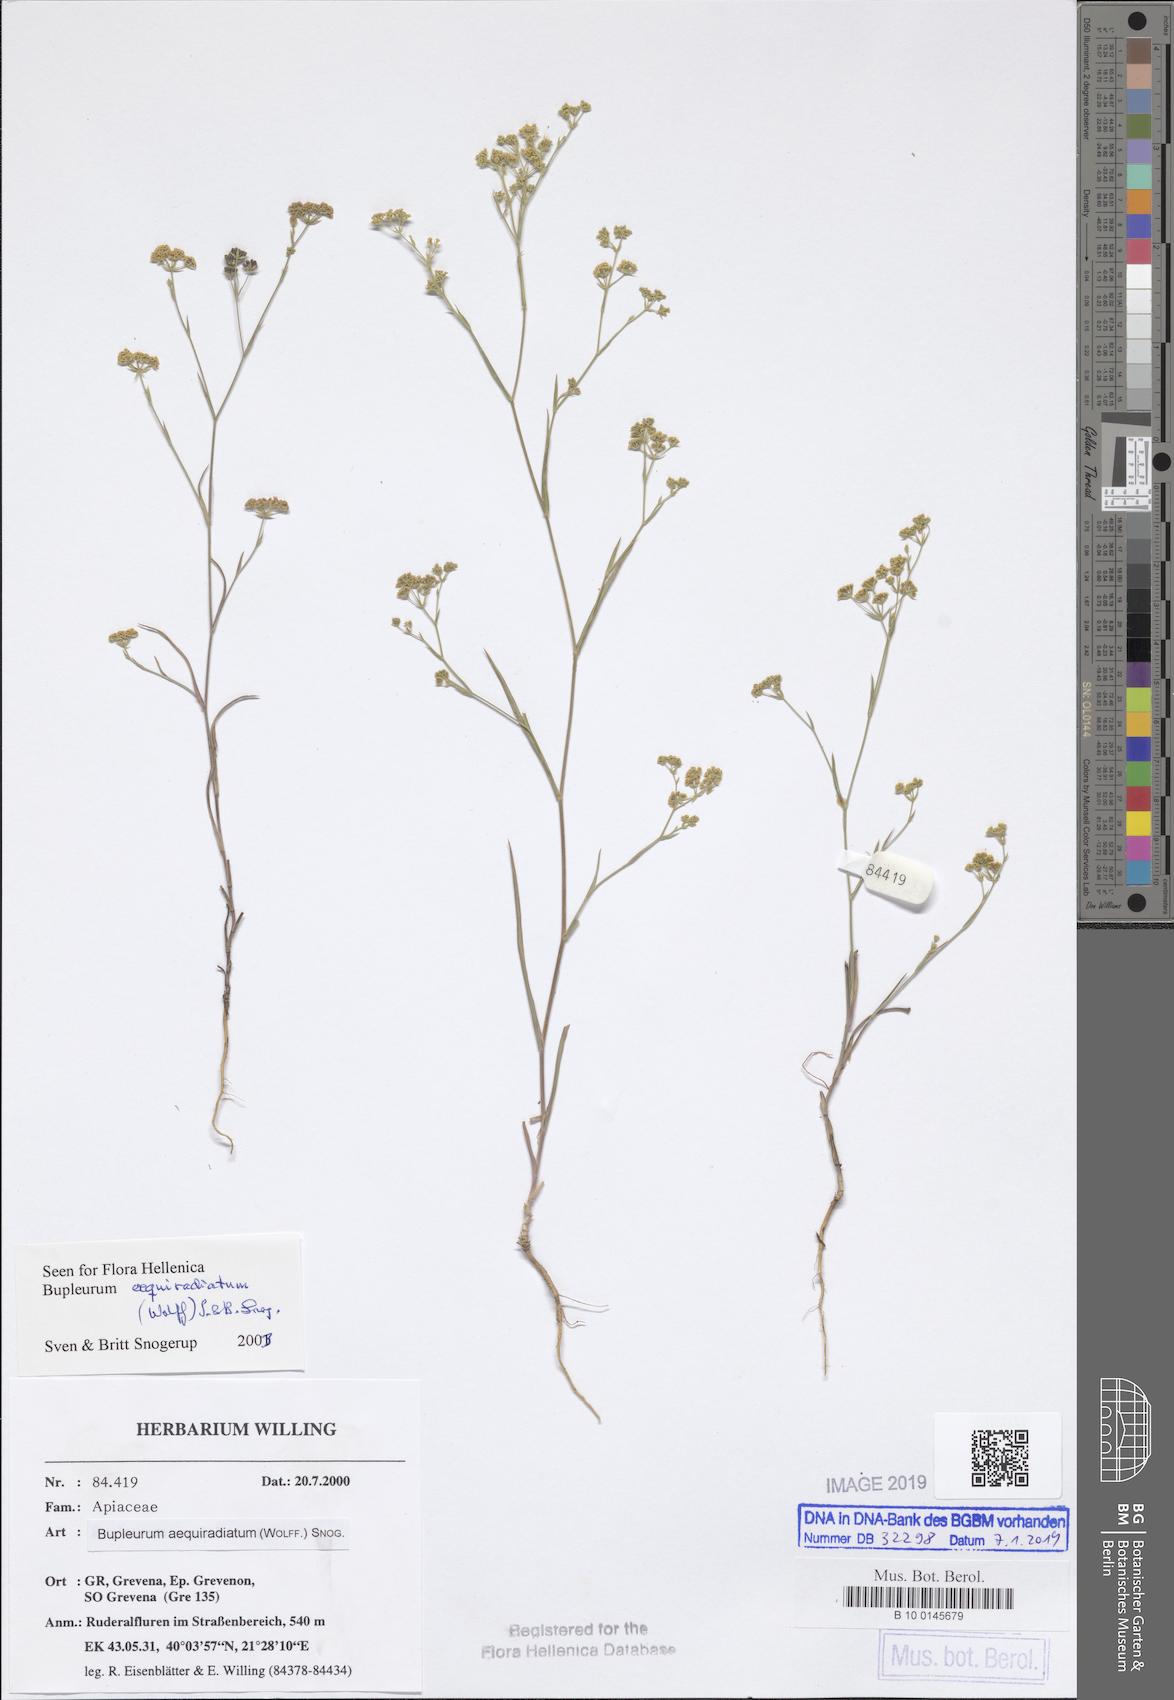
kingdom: Plantae
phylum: Tracheophyta
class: Magnoliopsida
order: Apiales
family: Apiaceae
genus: Bupleurum
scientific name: Bupleurum aequiradiatum
